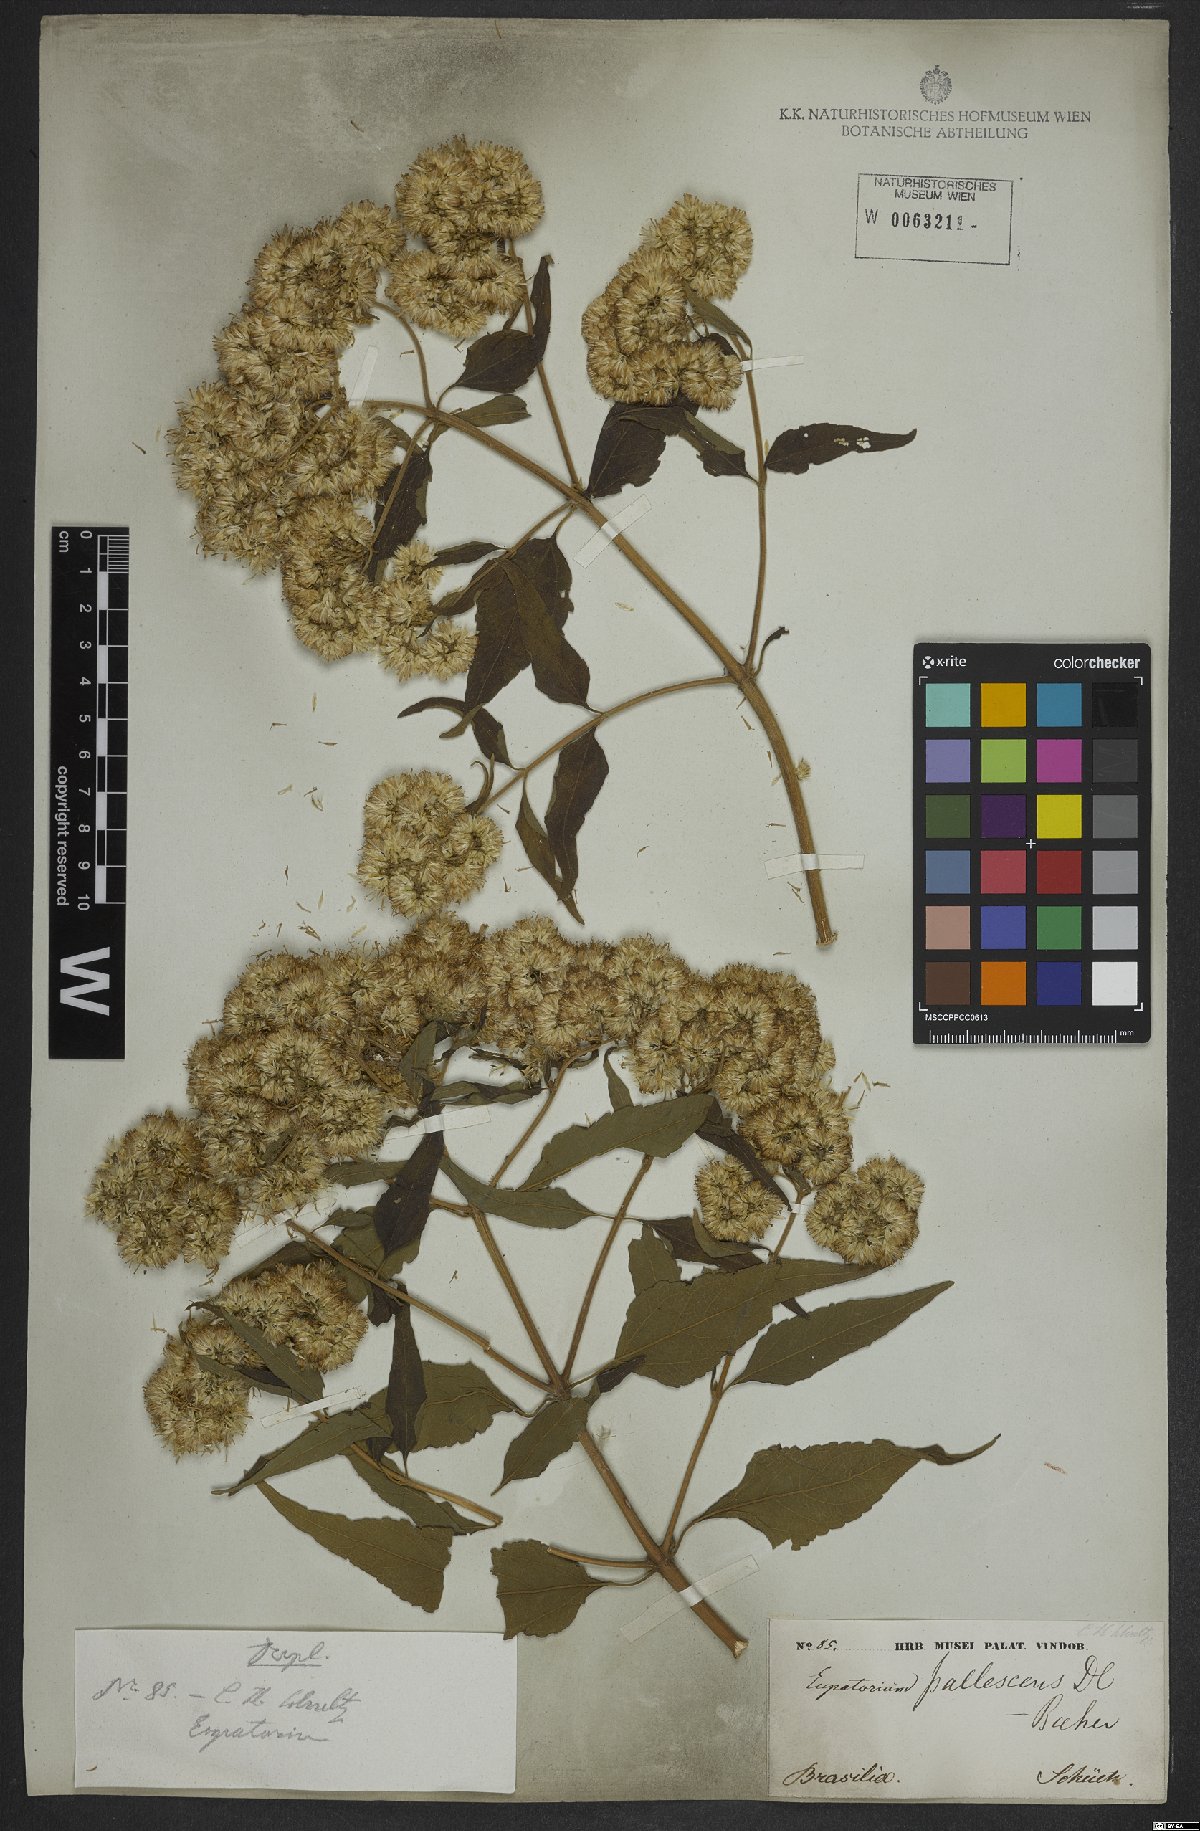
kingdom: Plantae
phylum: Tracheophyta
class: Magnoliopsida
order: Asterales
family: Asteraceae
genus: Austroeupatorium
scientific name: Austroeupatorium inulifolium
